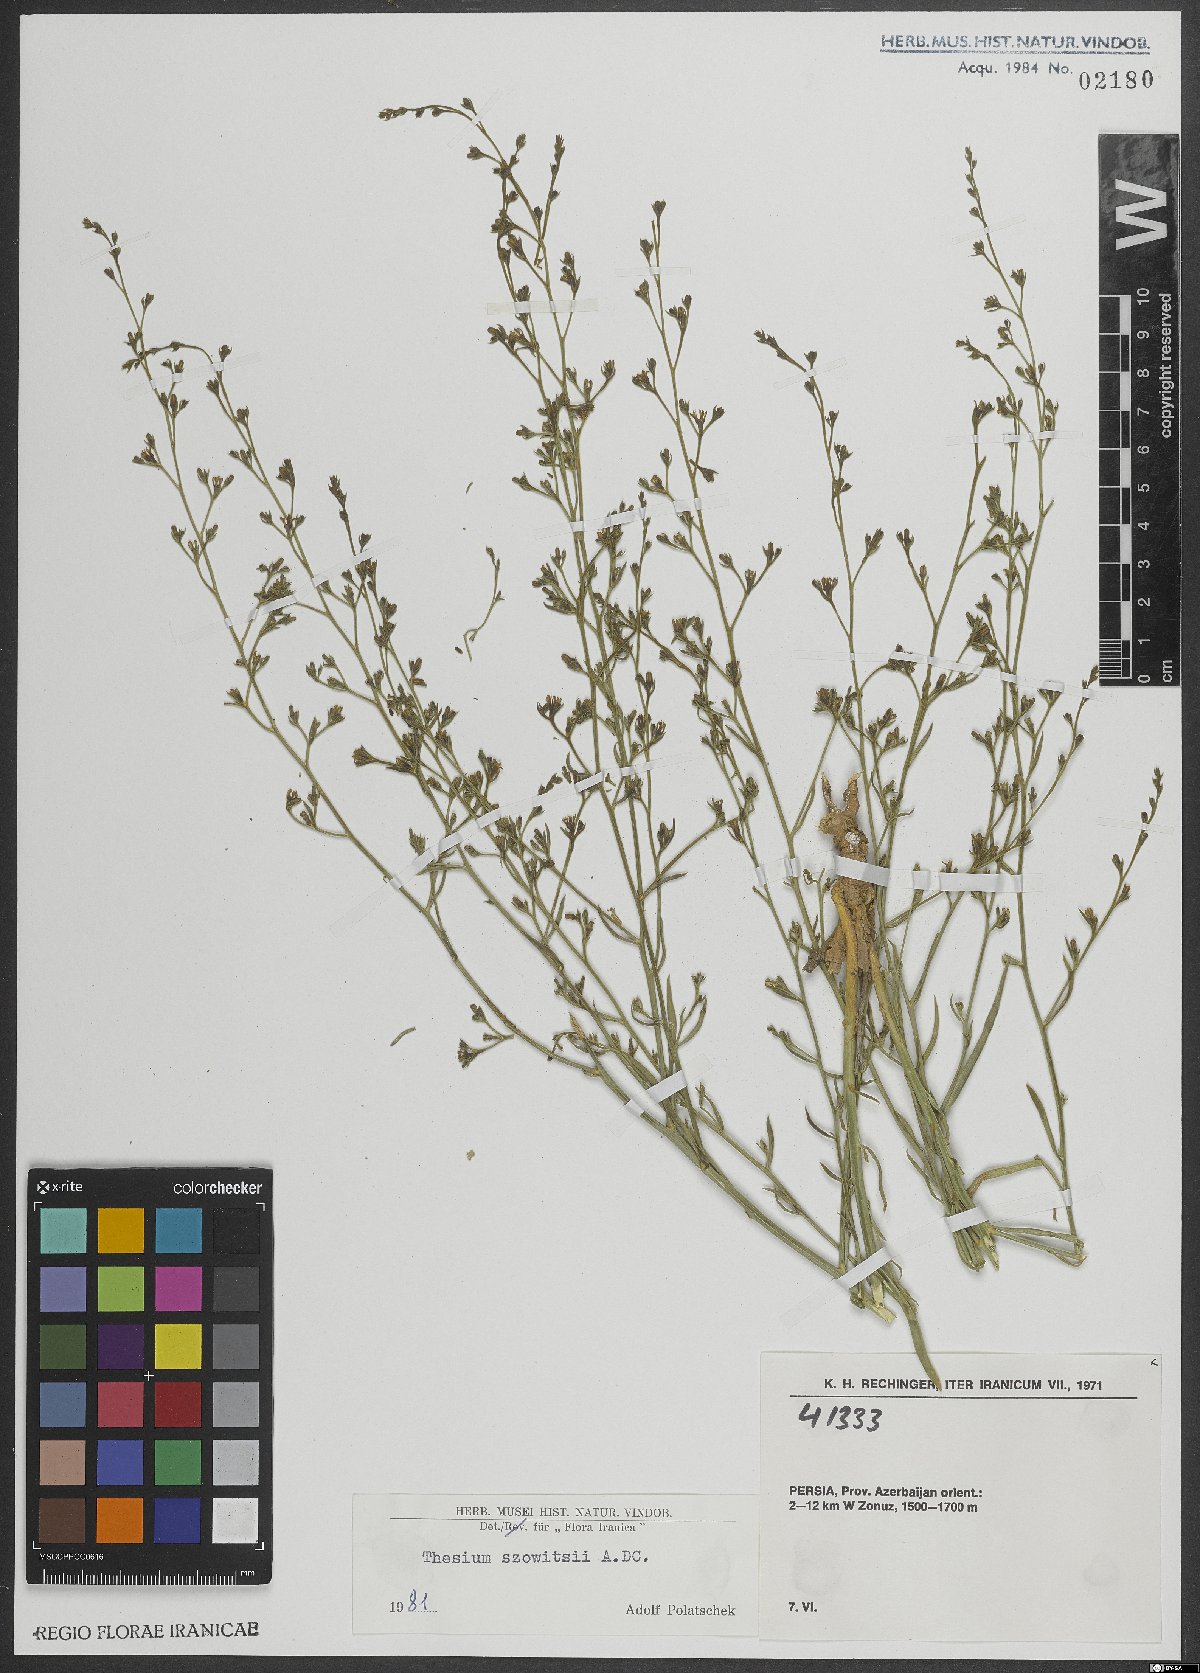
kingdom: Plantae
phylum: Tracheophyta
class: Magnoliopsida
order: Santalales
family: Thesiaceae
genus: Thesium
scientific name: Thesium szowitsii
